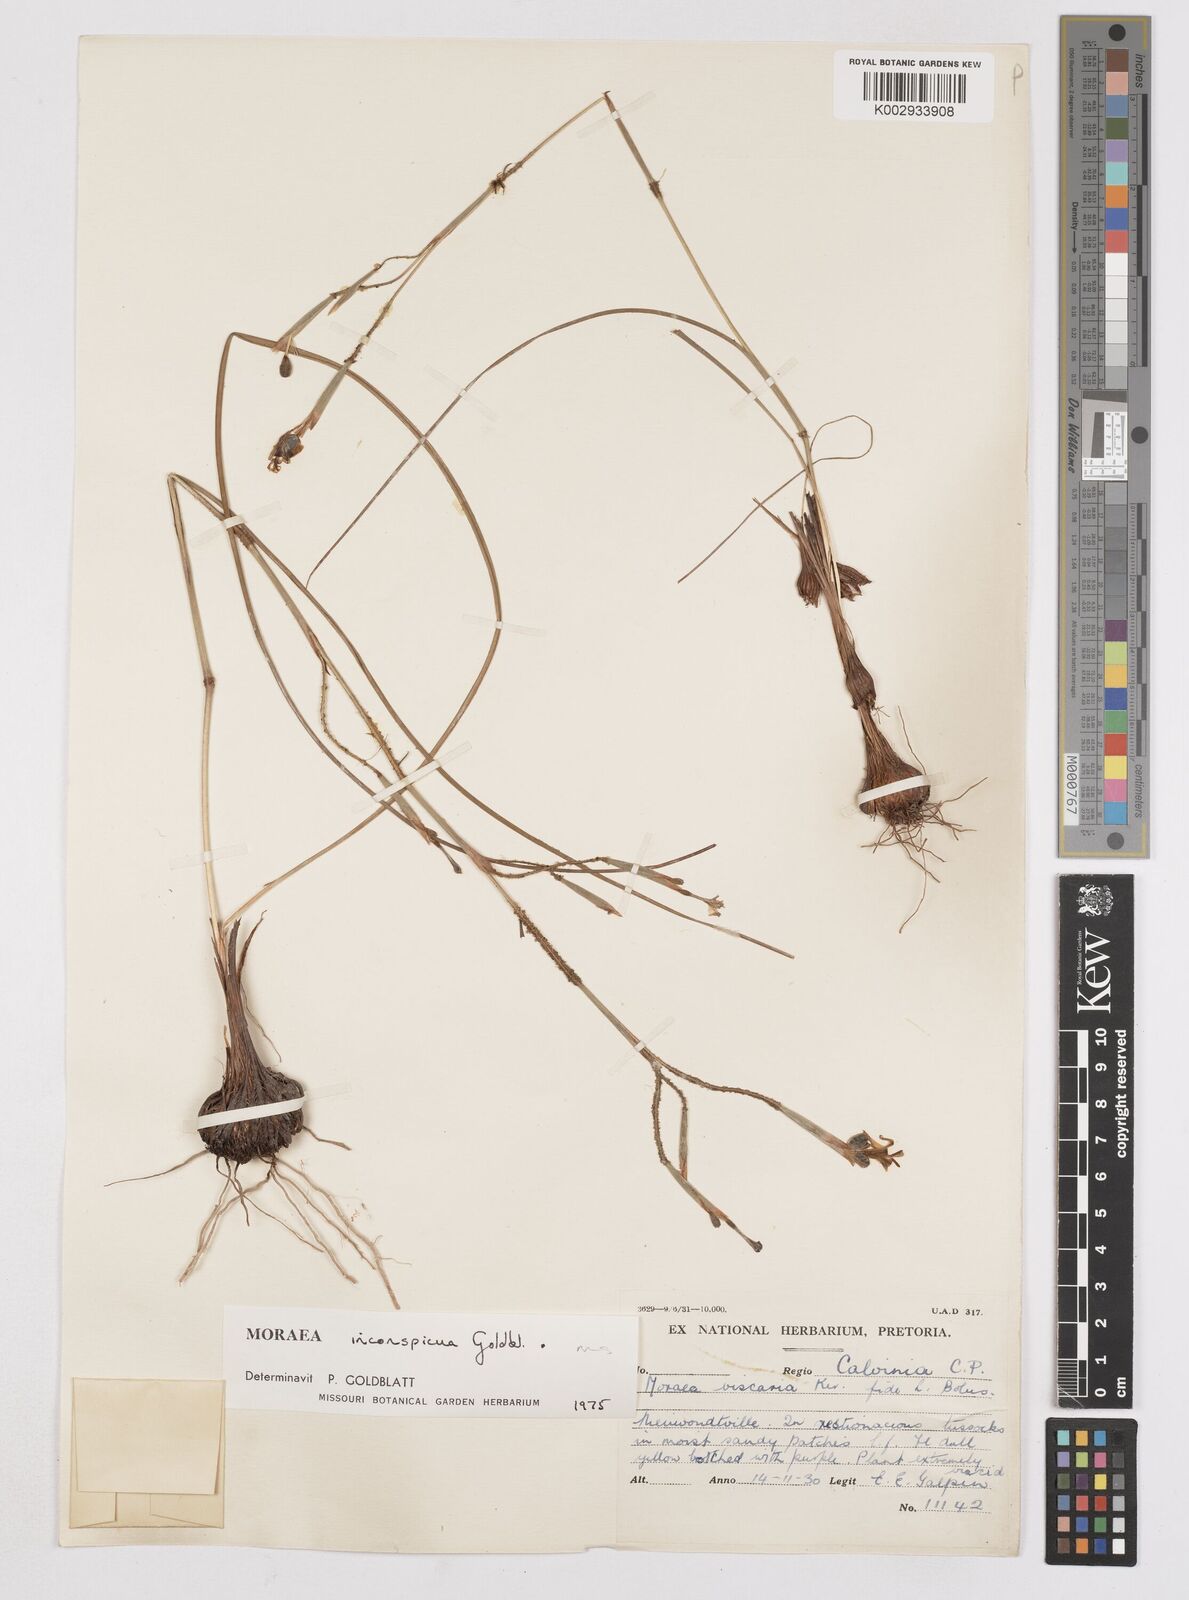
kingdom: Plantae
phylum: Tracheophyta
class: Liliopsida
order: Asparagales
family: Iridaceae
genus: Moraea
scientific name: Moraea inconspicua
